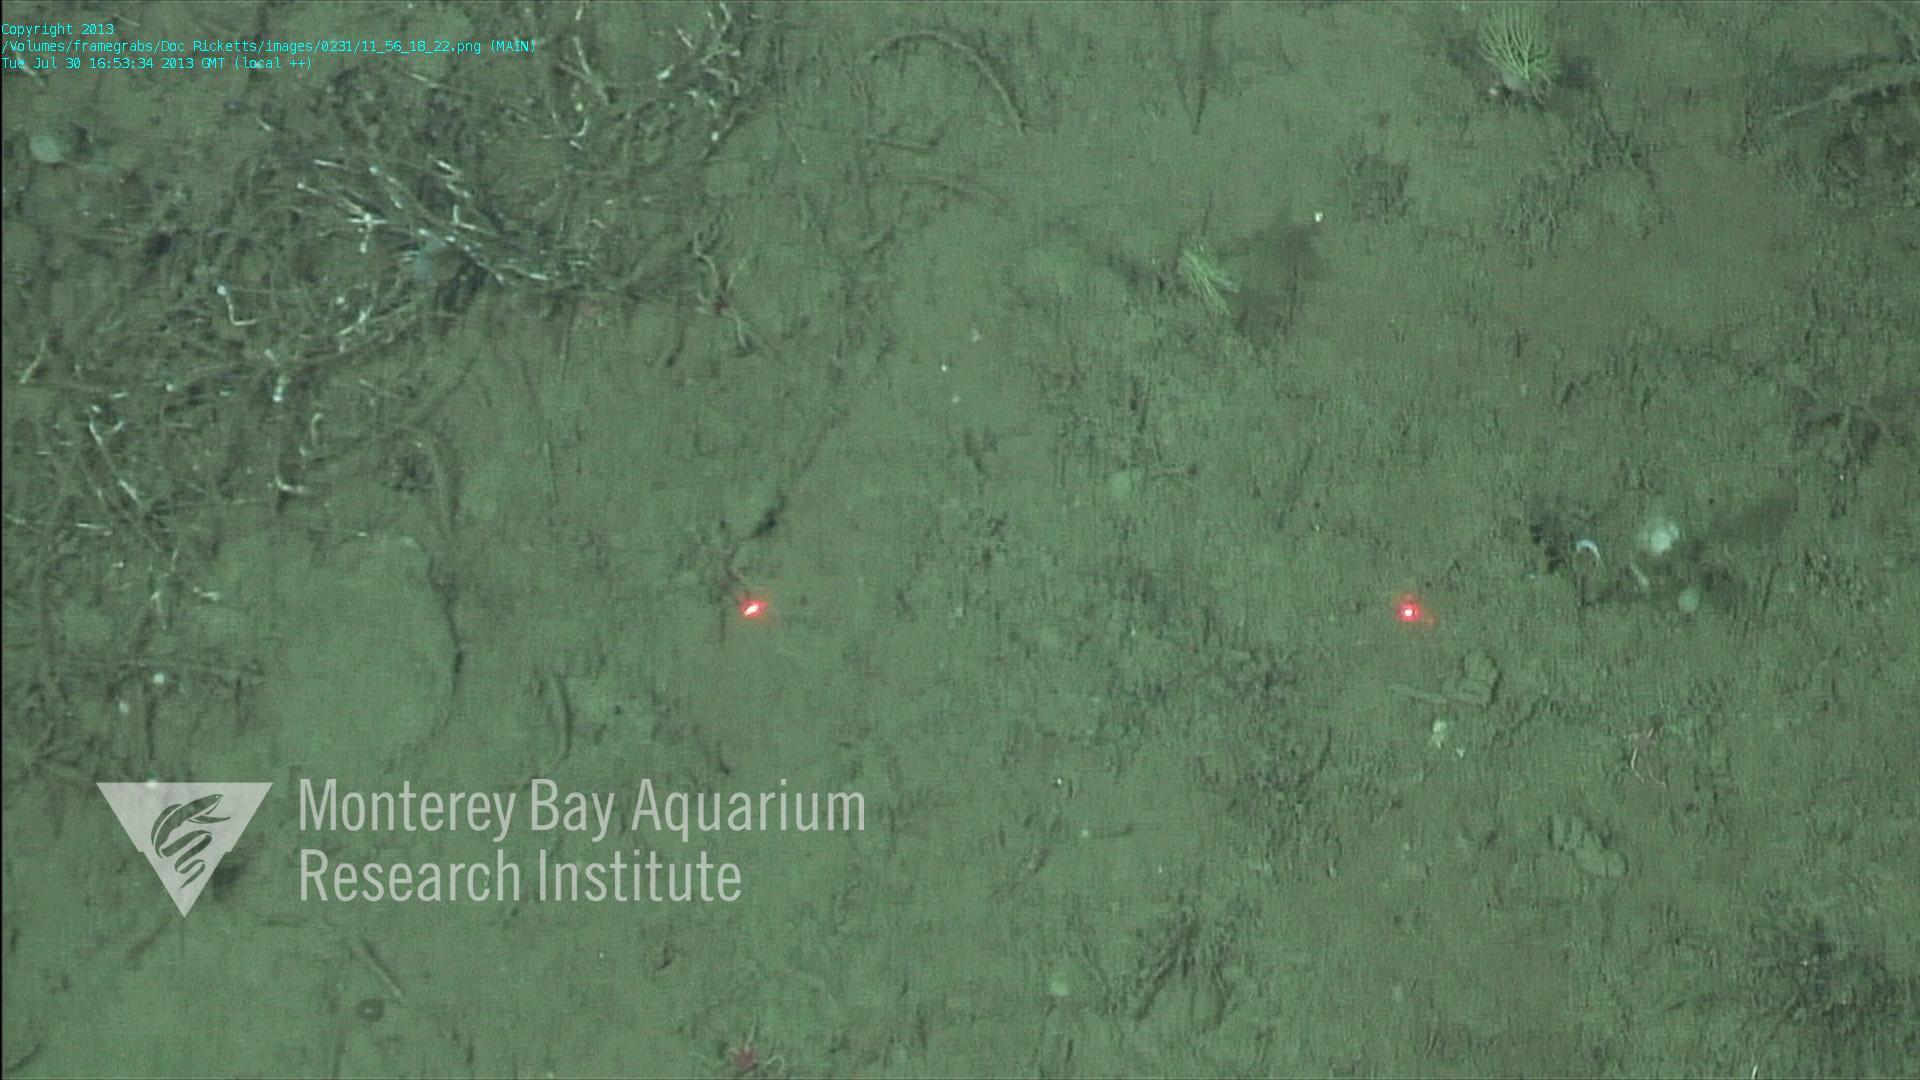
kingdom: Animalia
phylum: Porifera
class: Demospongiae
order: Poecilosclerida
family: Cladorhizidae
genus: Cladorhiza
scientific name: Cladorhiza
